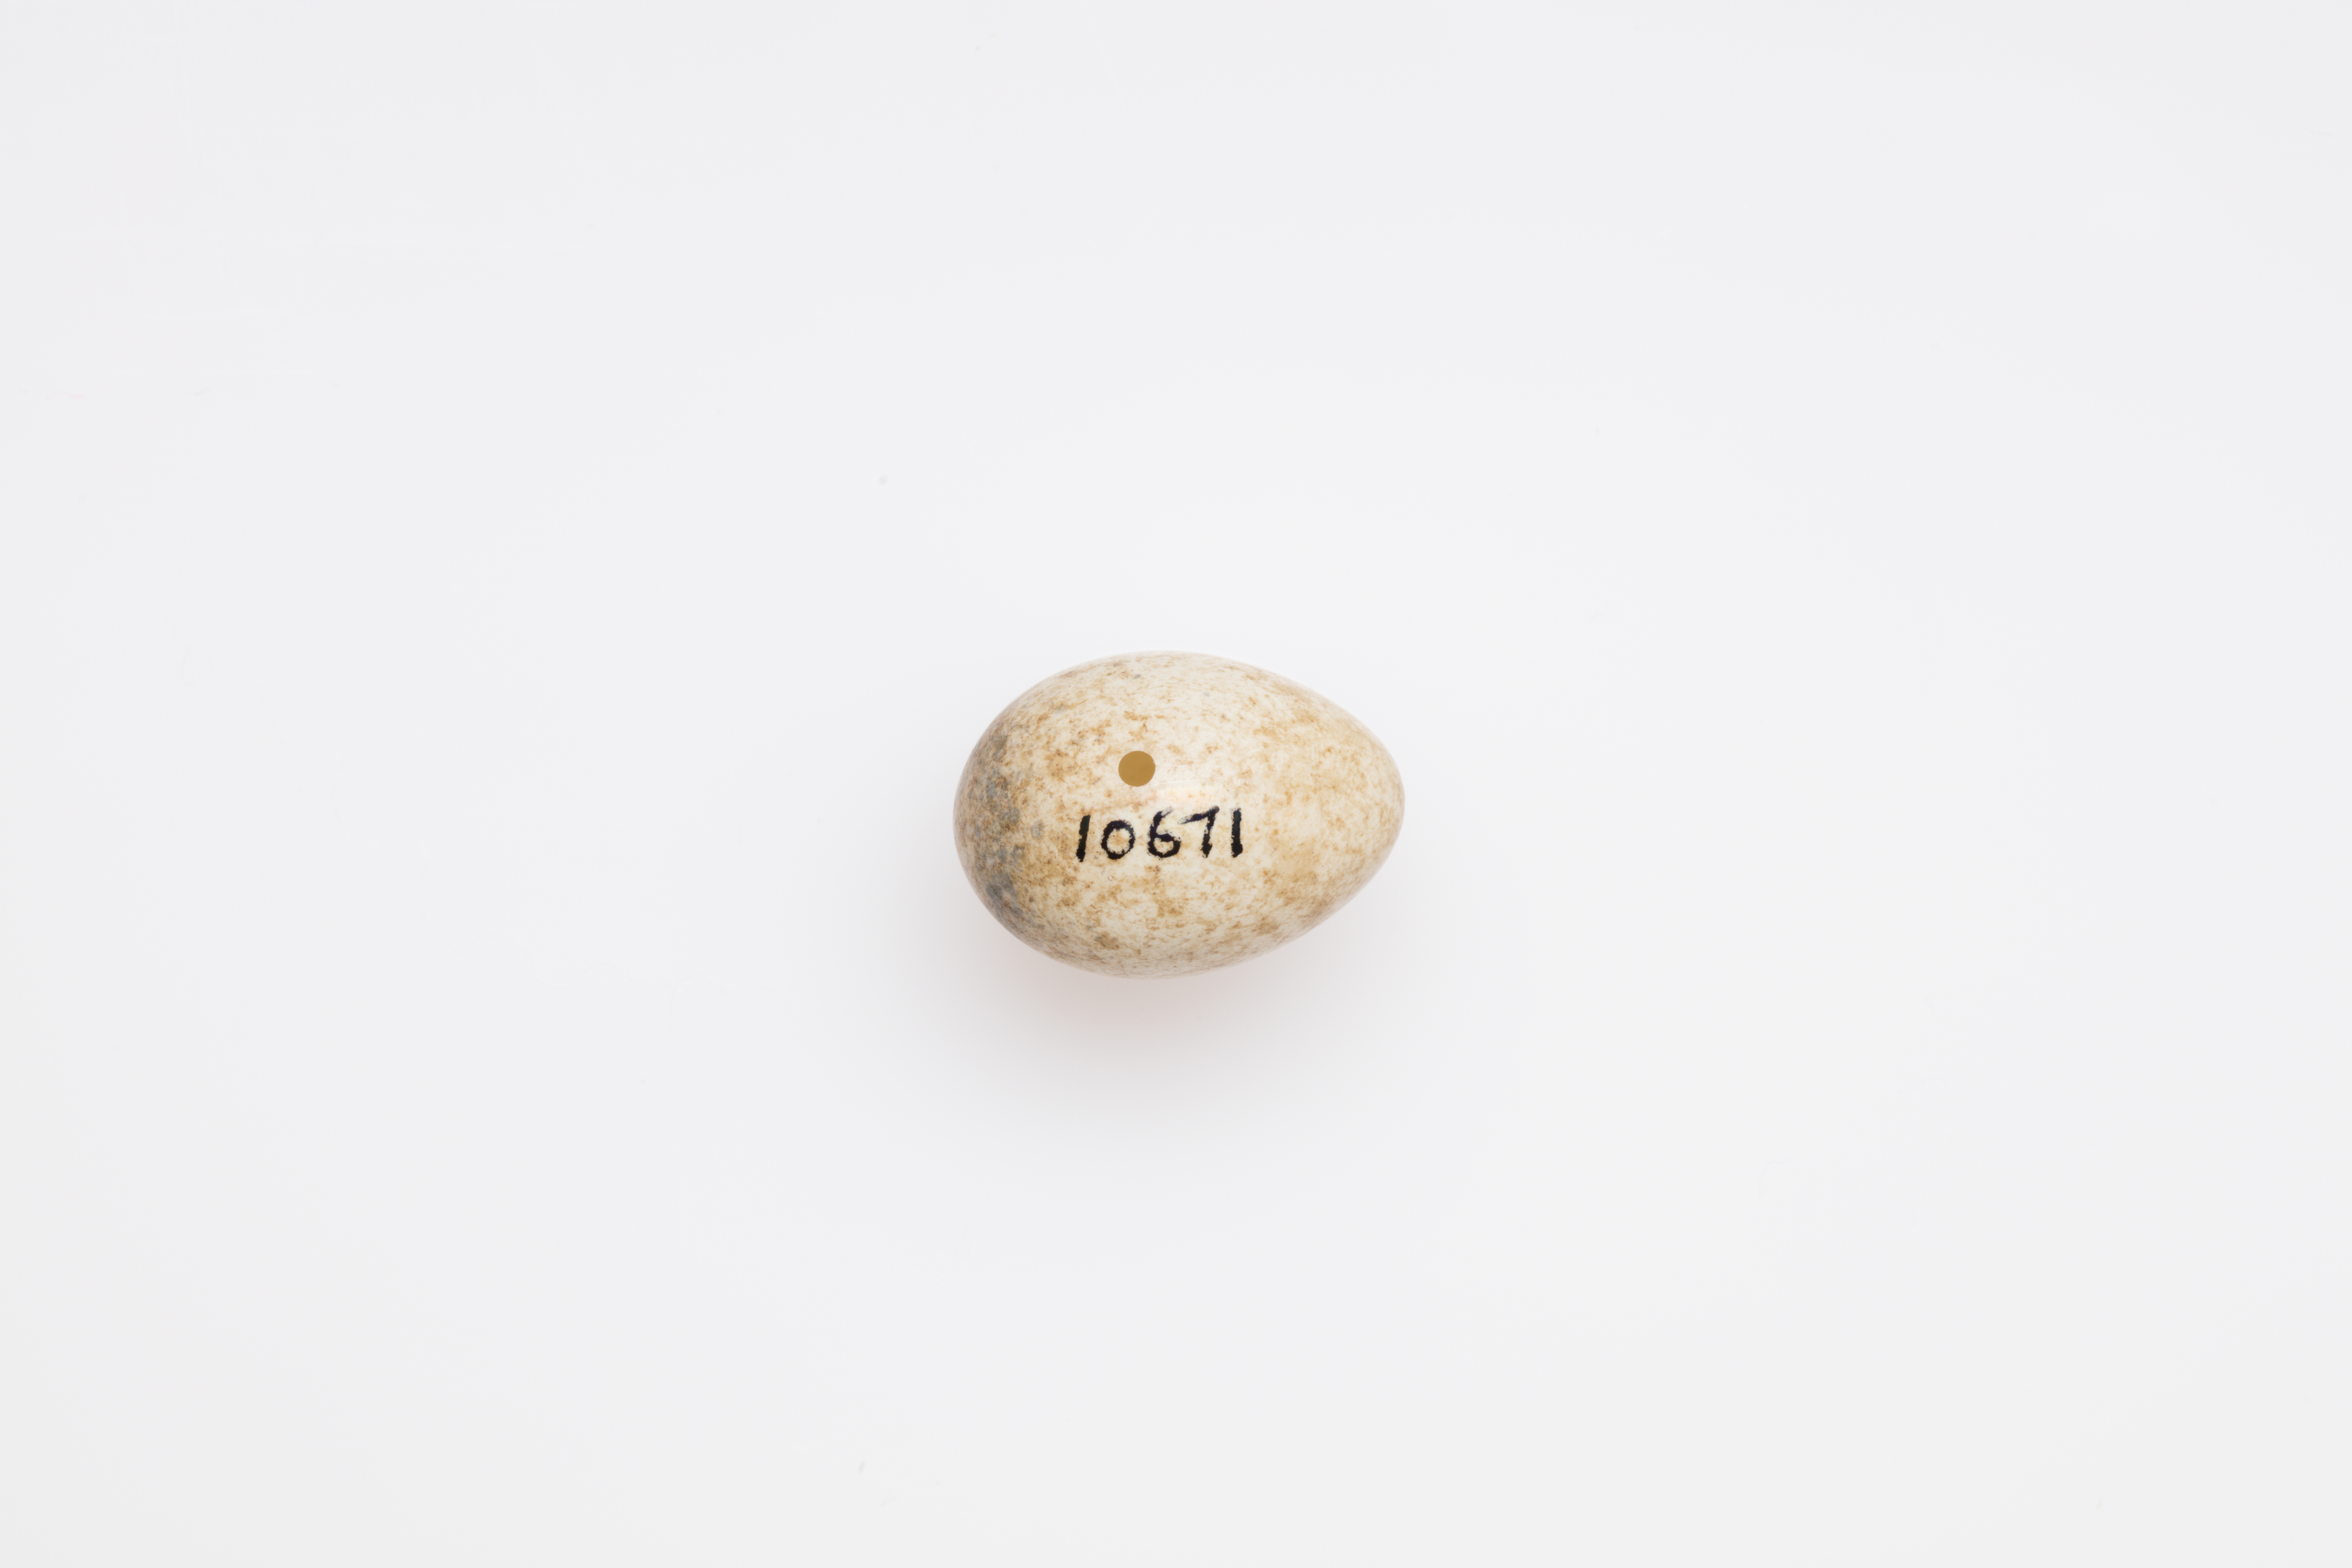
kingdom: Animalia
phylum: Chordata
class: Aves
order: Passeriformes
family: Sylviidae
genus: Sylvia
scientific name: Sylvia communis
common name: Common whitethroat
